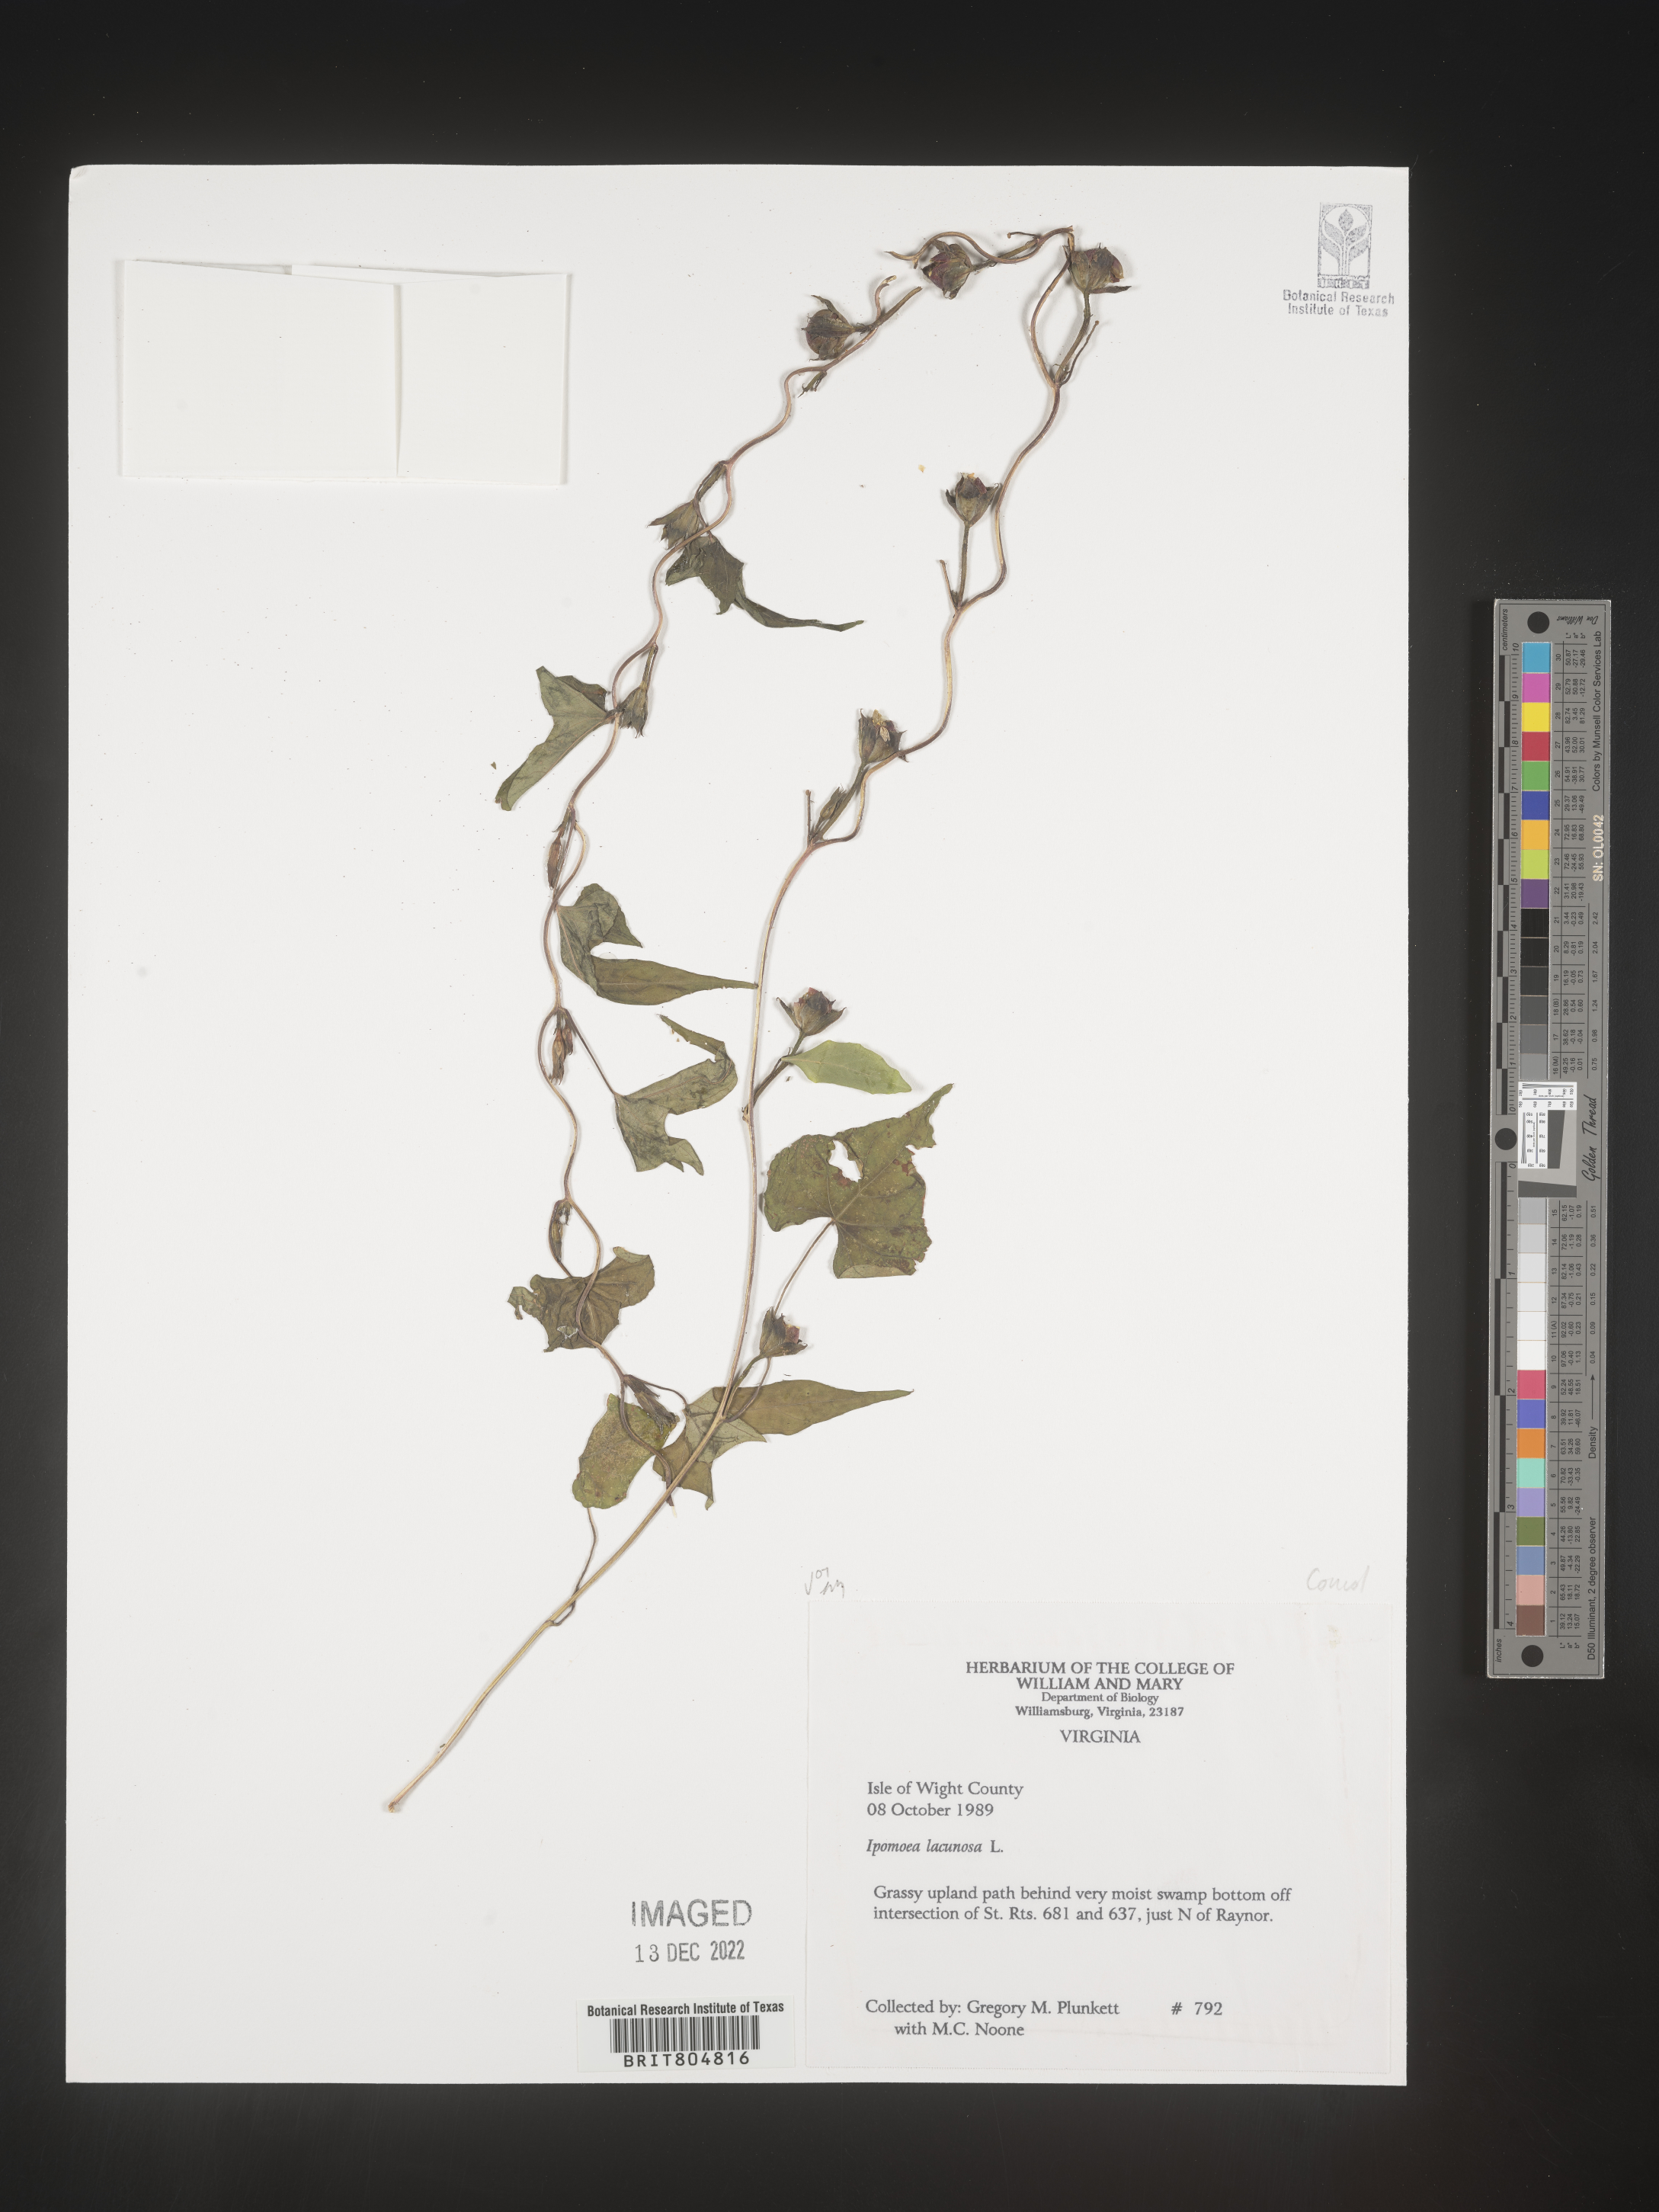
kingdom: Plantae
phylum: Tracheophyta
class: Magnoliopsida
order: Solanales
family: Convolvulaceae
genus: Ipomoea
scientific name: Ipomoea lacunosa
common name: White morning-glory
